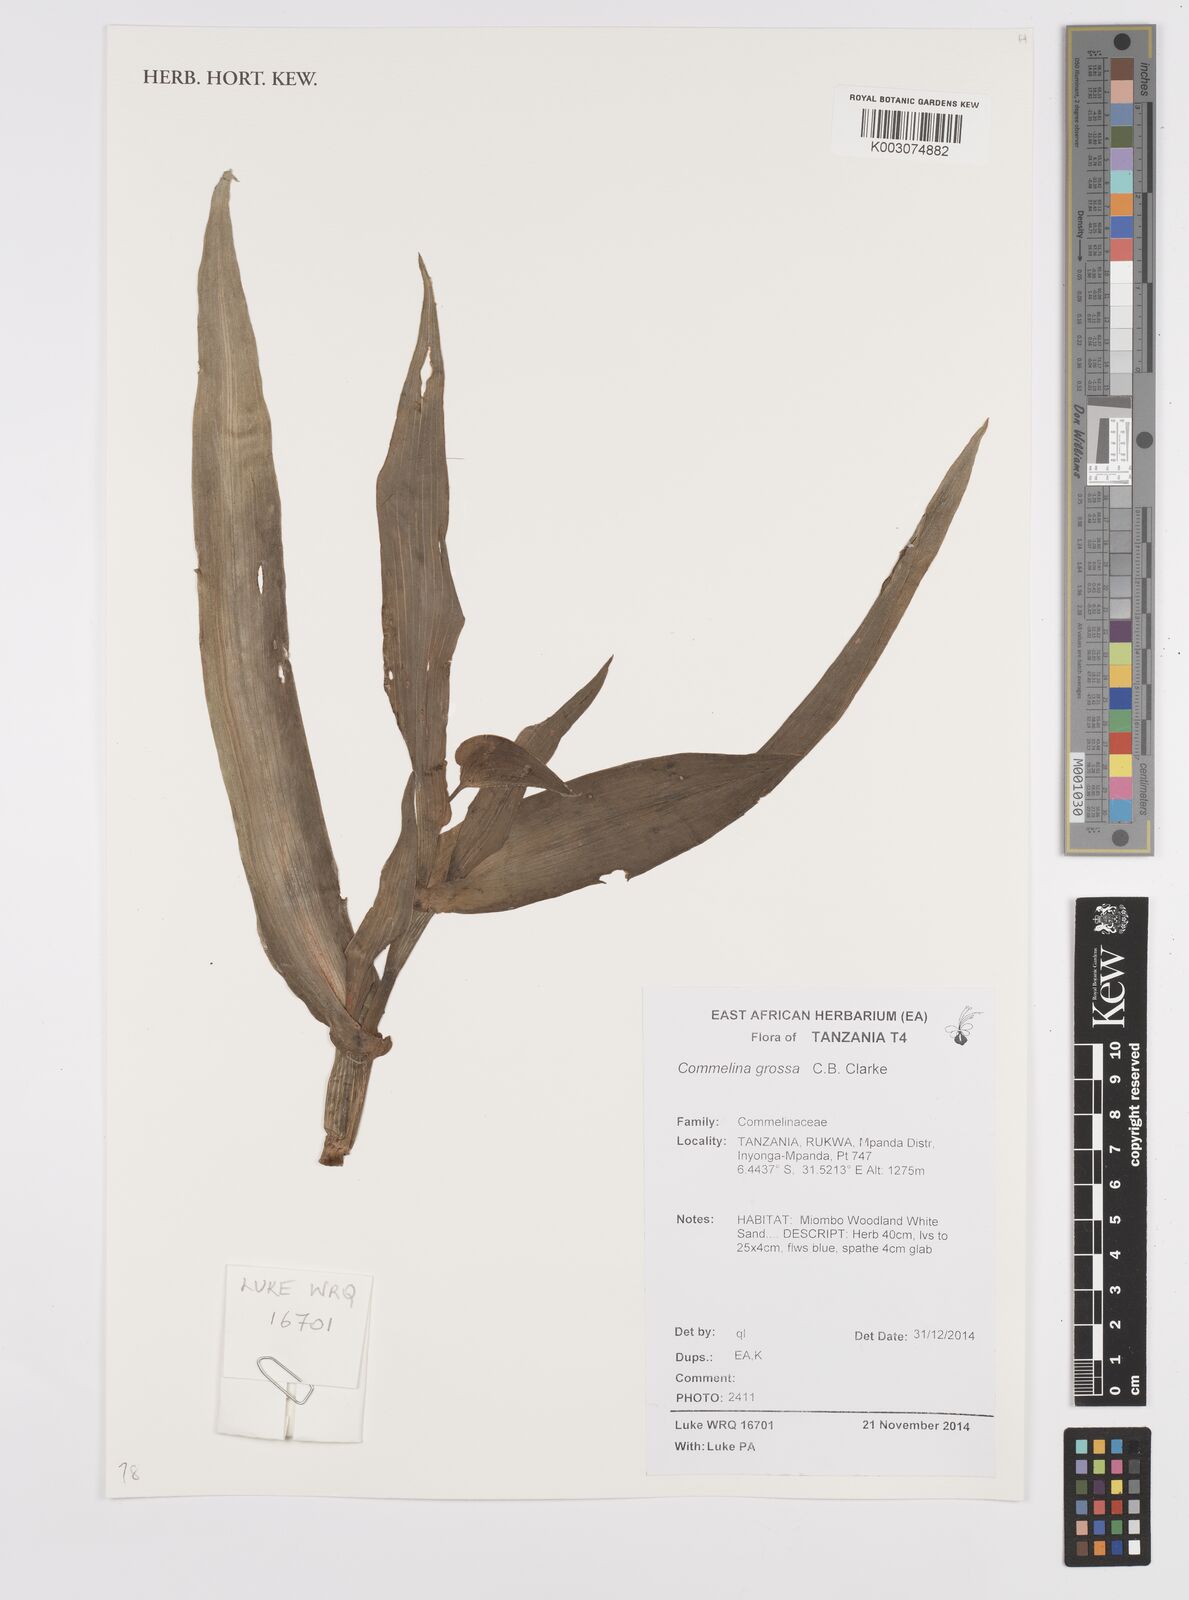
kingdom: Plantae
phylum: Tracheophyta
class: Liliopsida
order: Commelinales
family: Commelinaceae
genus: Commelina
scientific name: Commelina grossa
